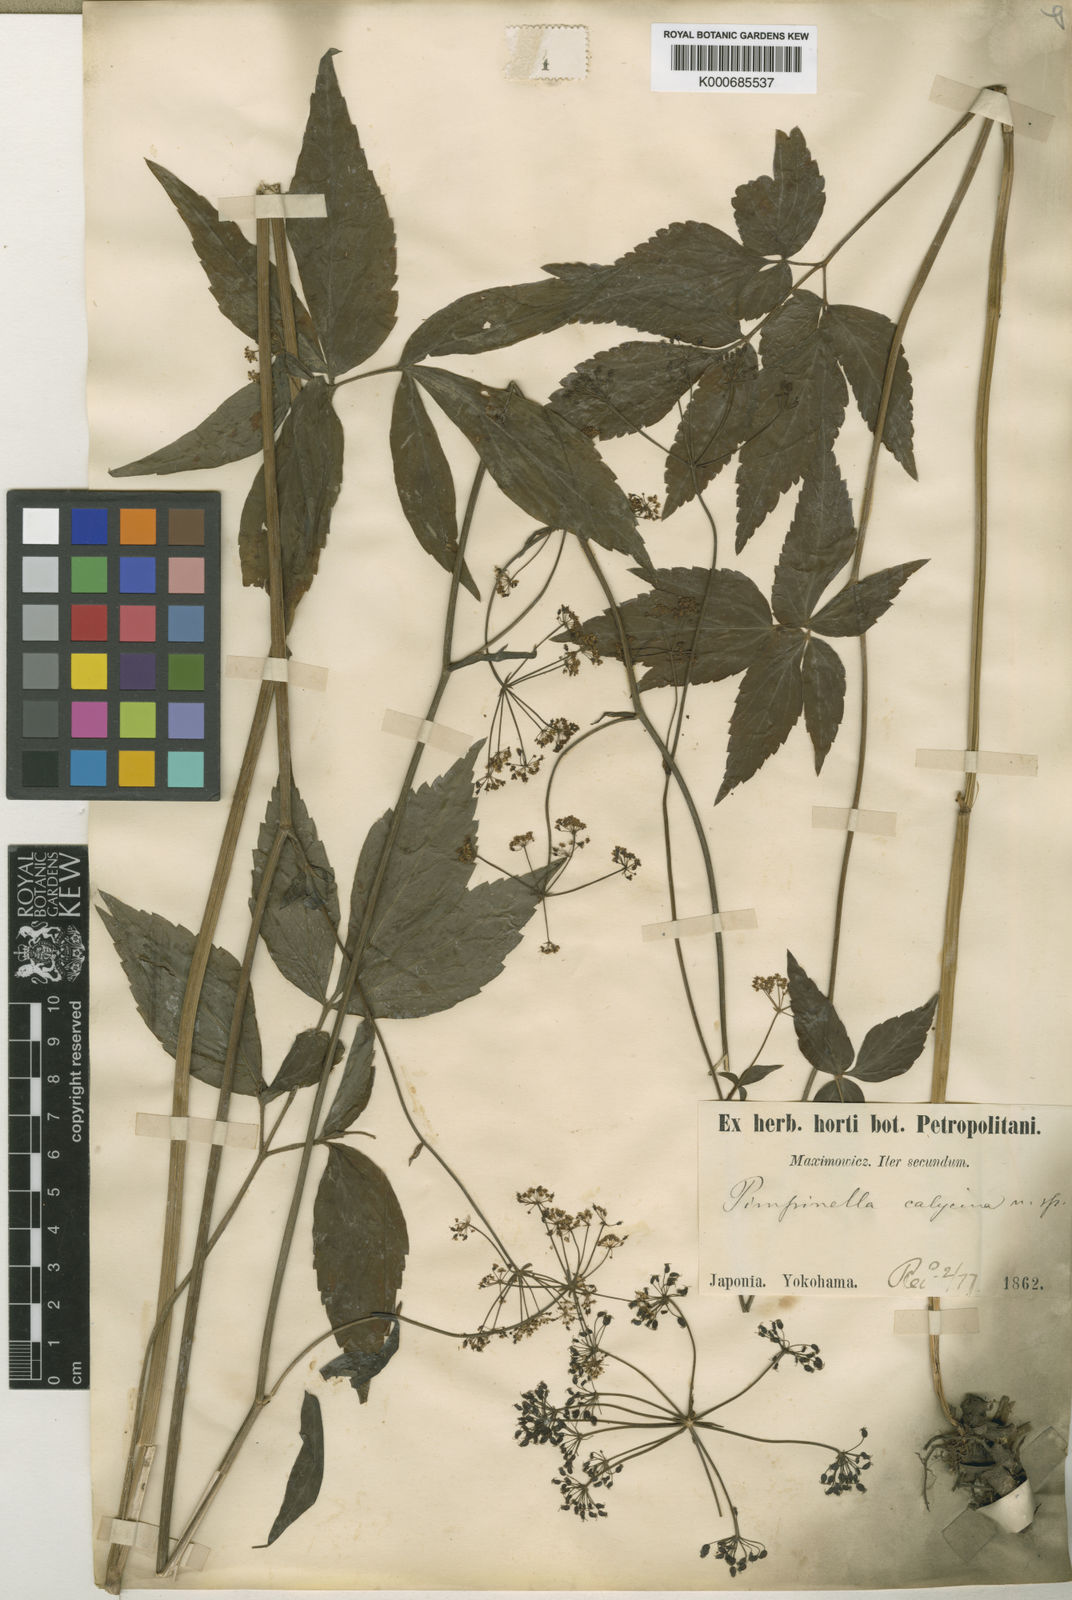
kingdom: Plantae
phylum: Tracheophyta
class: Magnoliopsida
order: Apiales
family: Apiaceae
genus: Spuriopimpinella
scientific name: Spuriopimpinella calycina
